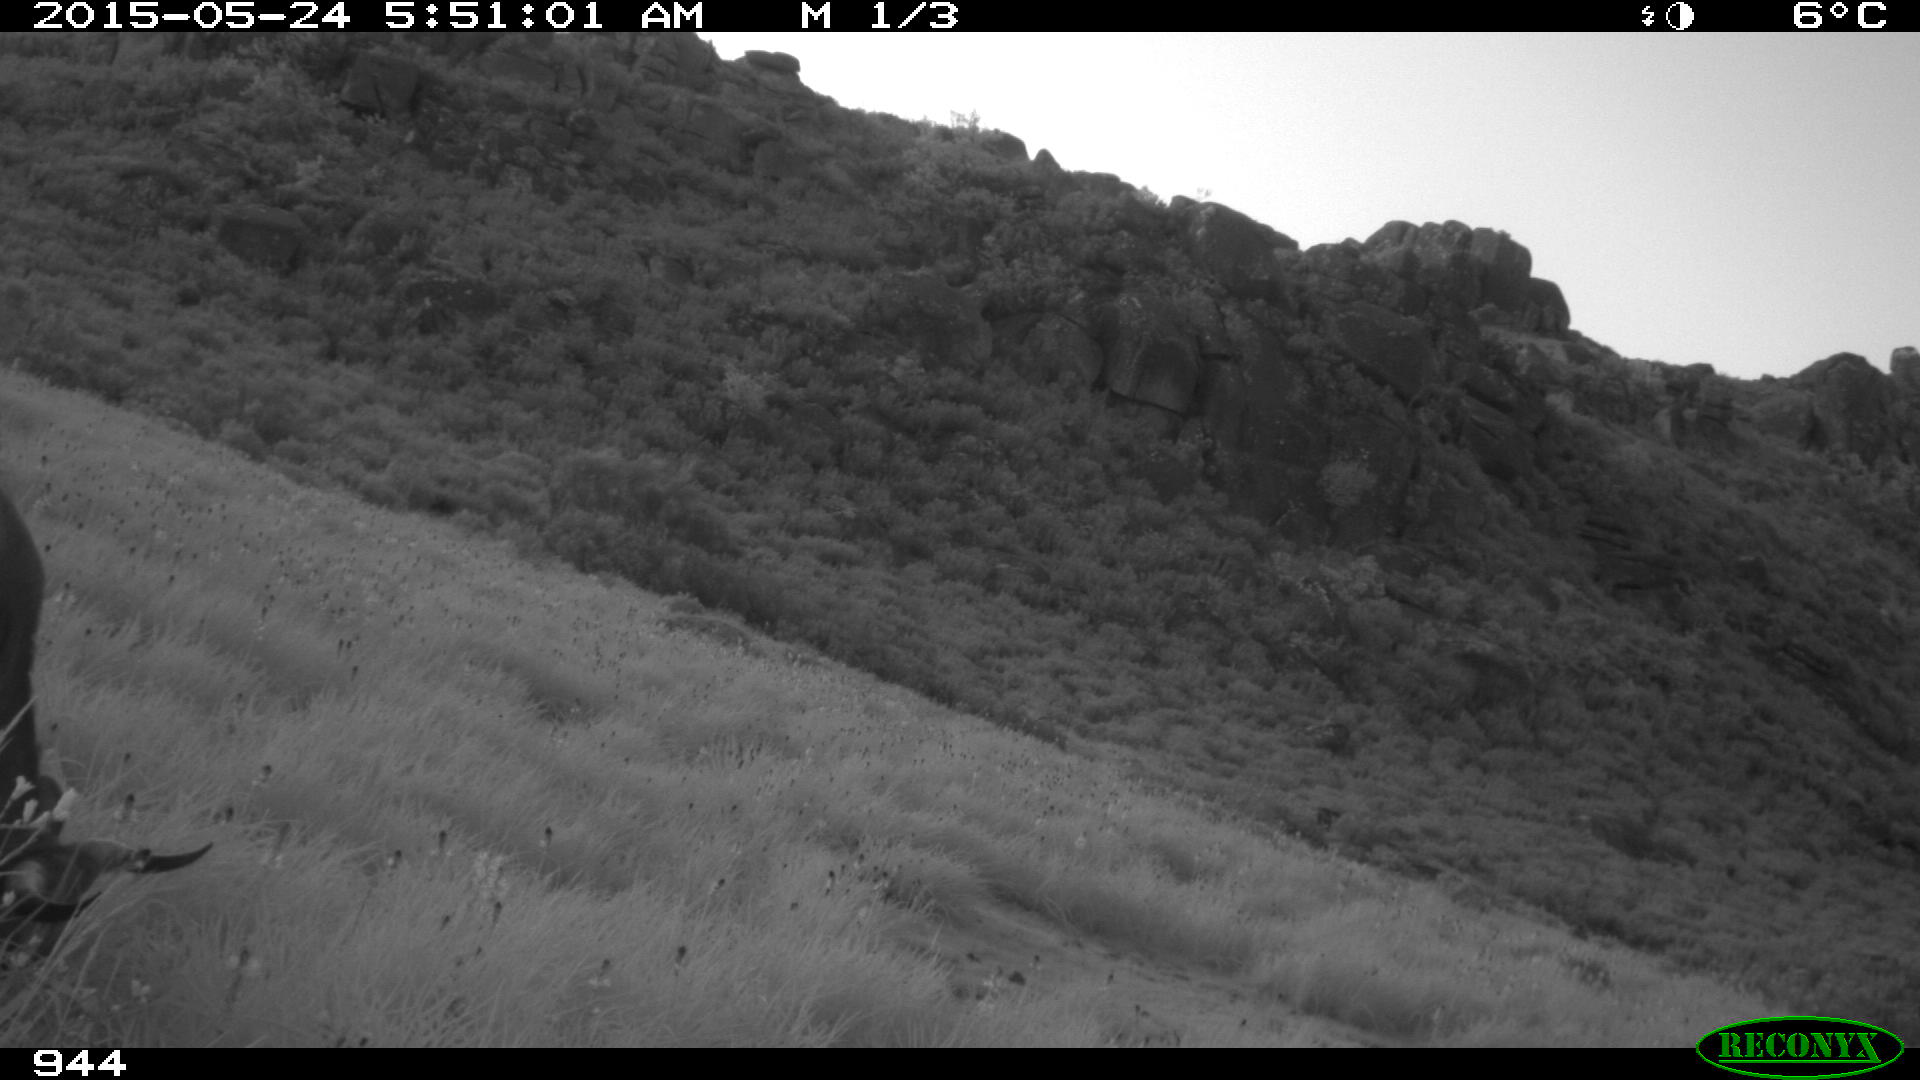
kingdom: Animalia
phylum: Chordata
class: Mammalia
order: Artiodactyla
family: Bovidae
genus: Bos
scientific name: Bos taurus
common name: Domesticated cattle
